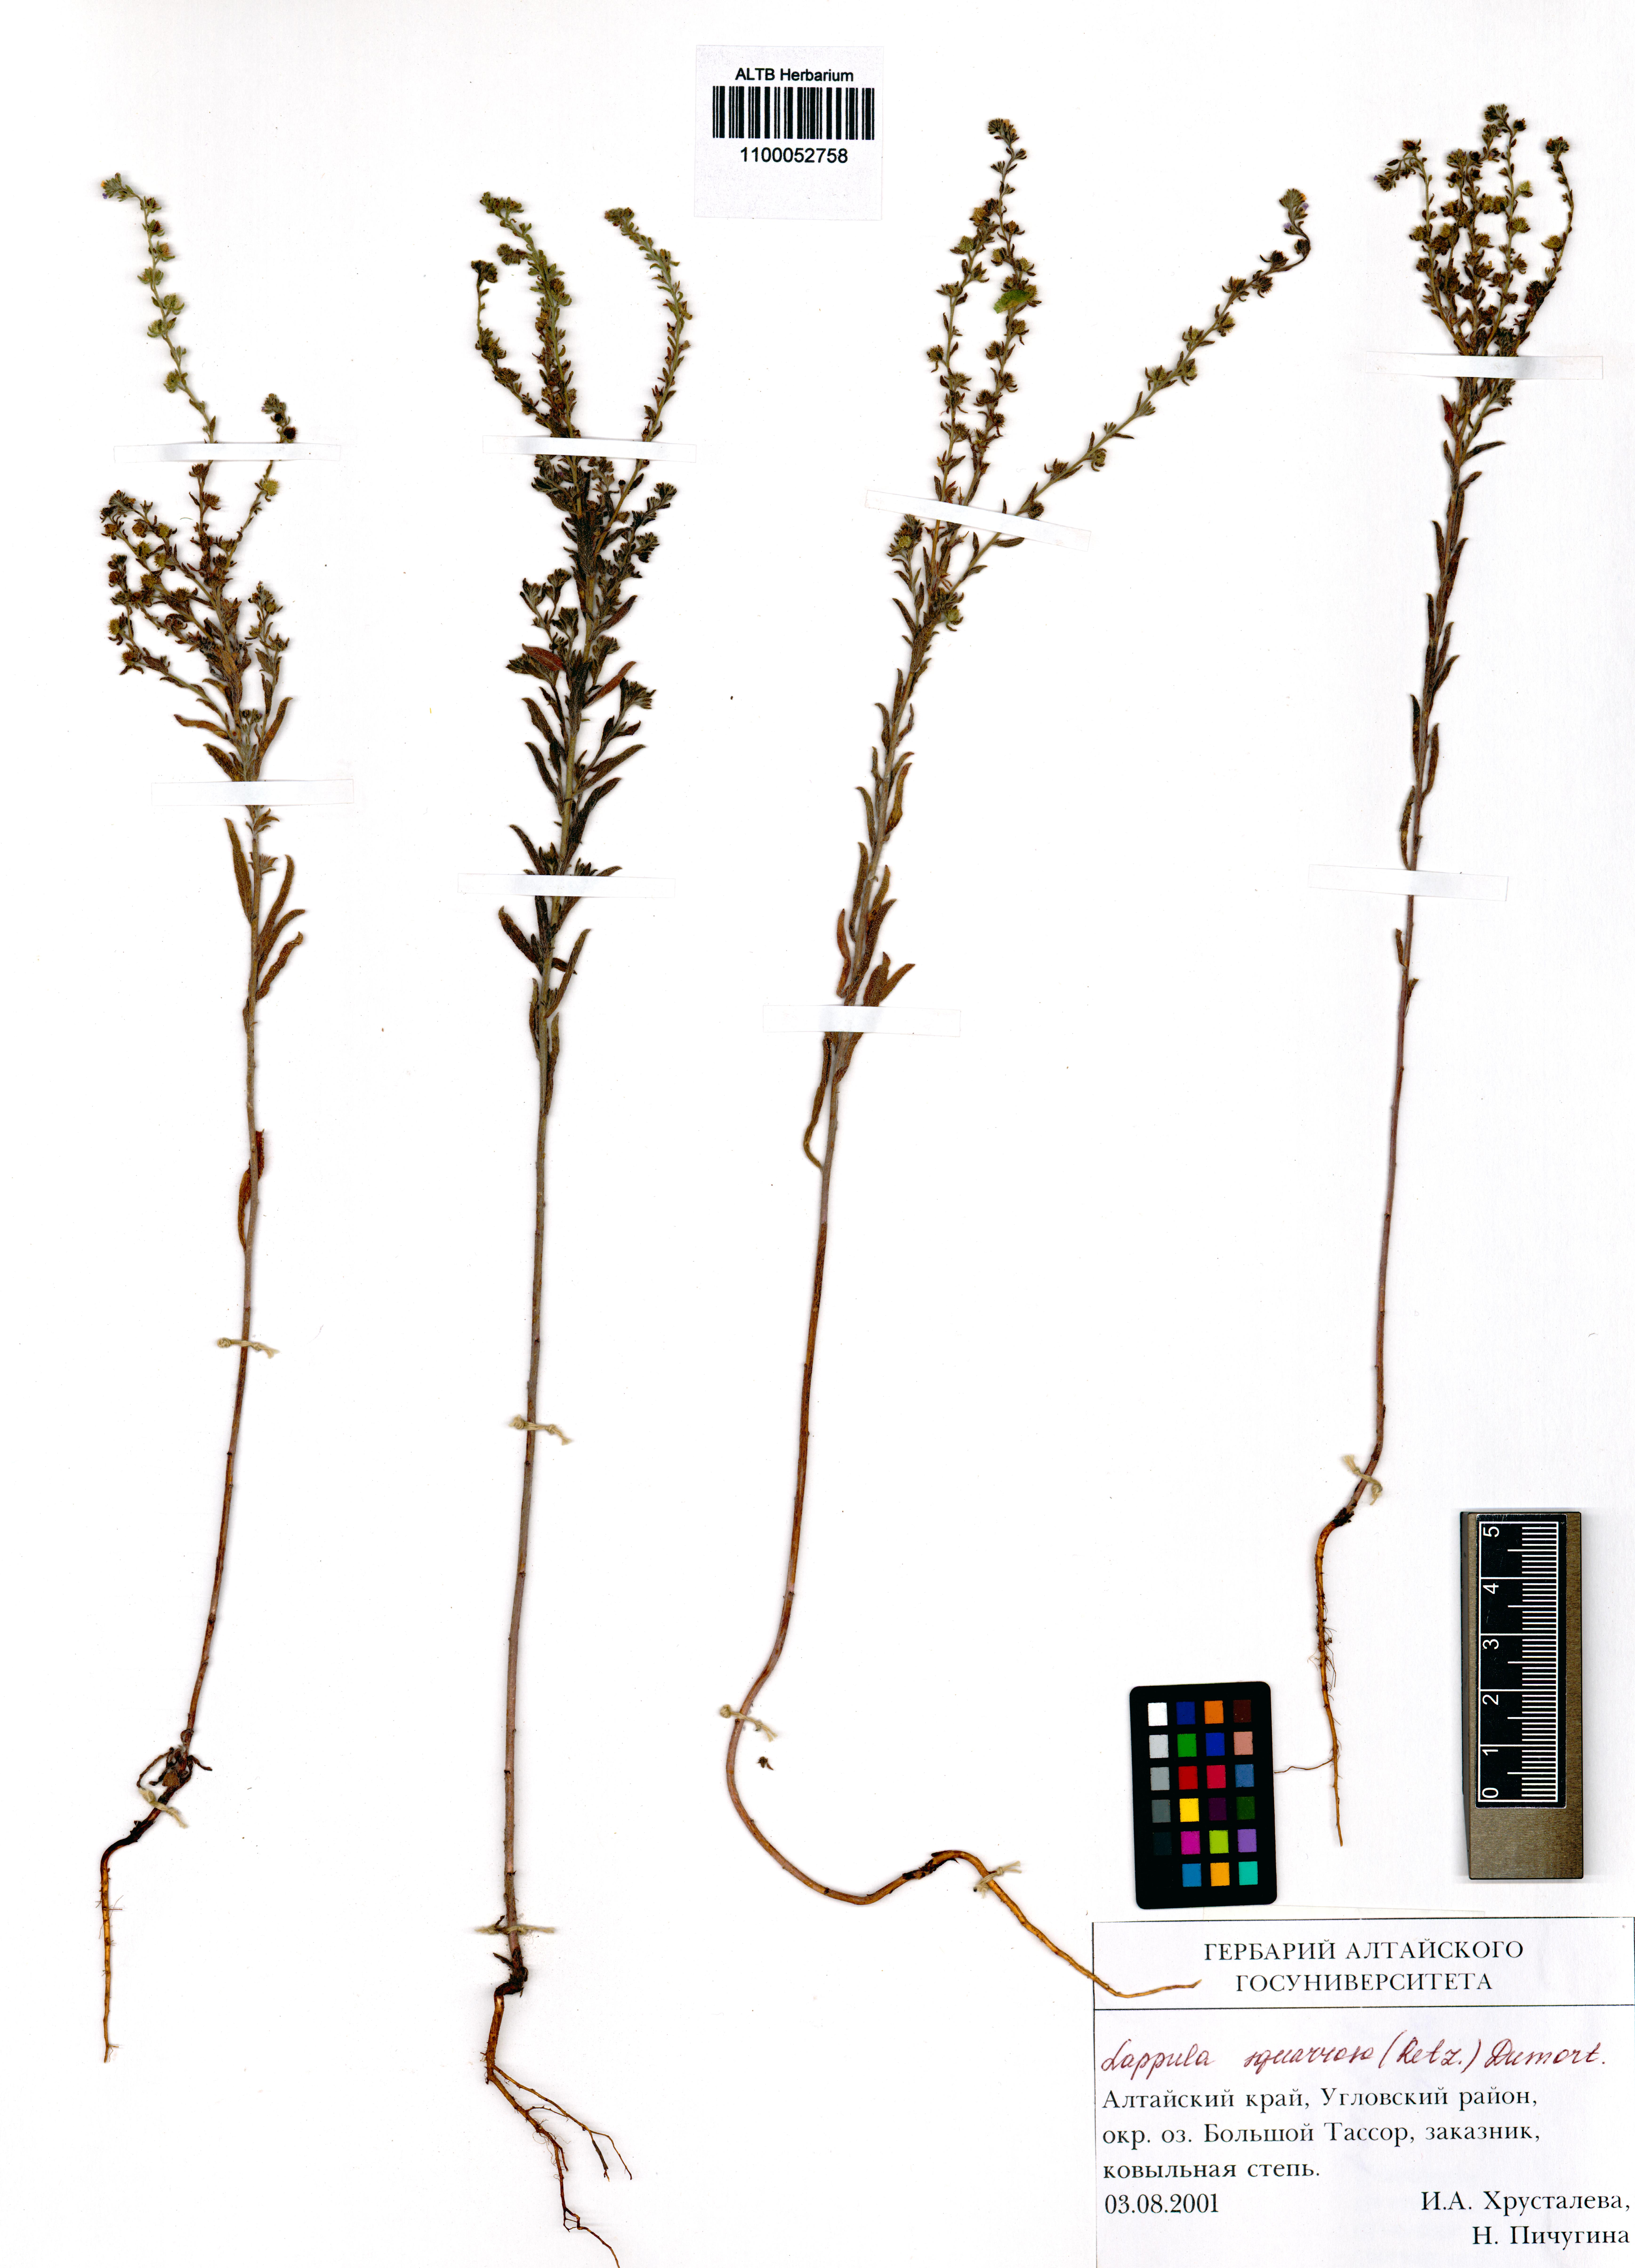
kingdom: Plantae
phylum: Tracheophyta
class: Magnoliopsida
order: Boraginales
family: Boraginaceae
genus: Lappula
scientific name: Lappula squarrosa
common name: European stickseed
